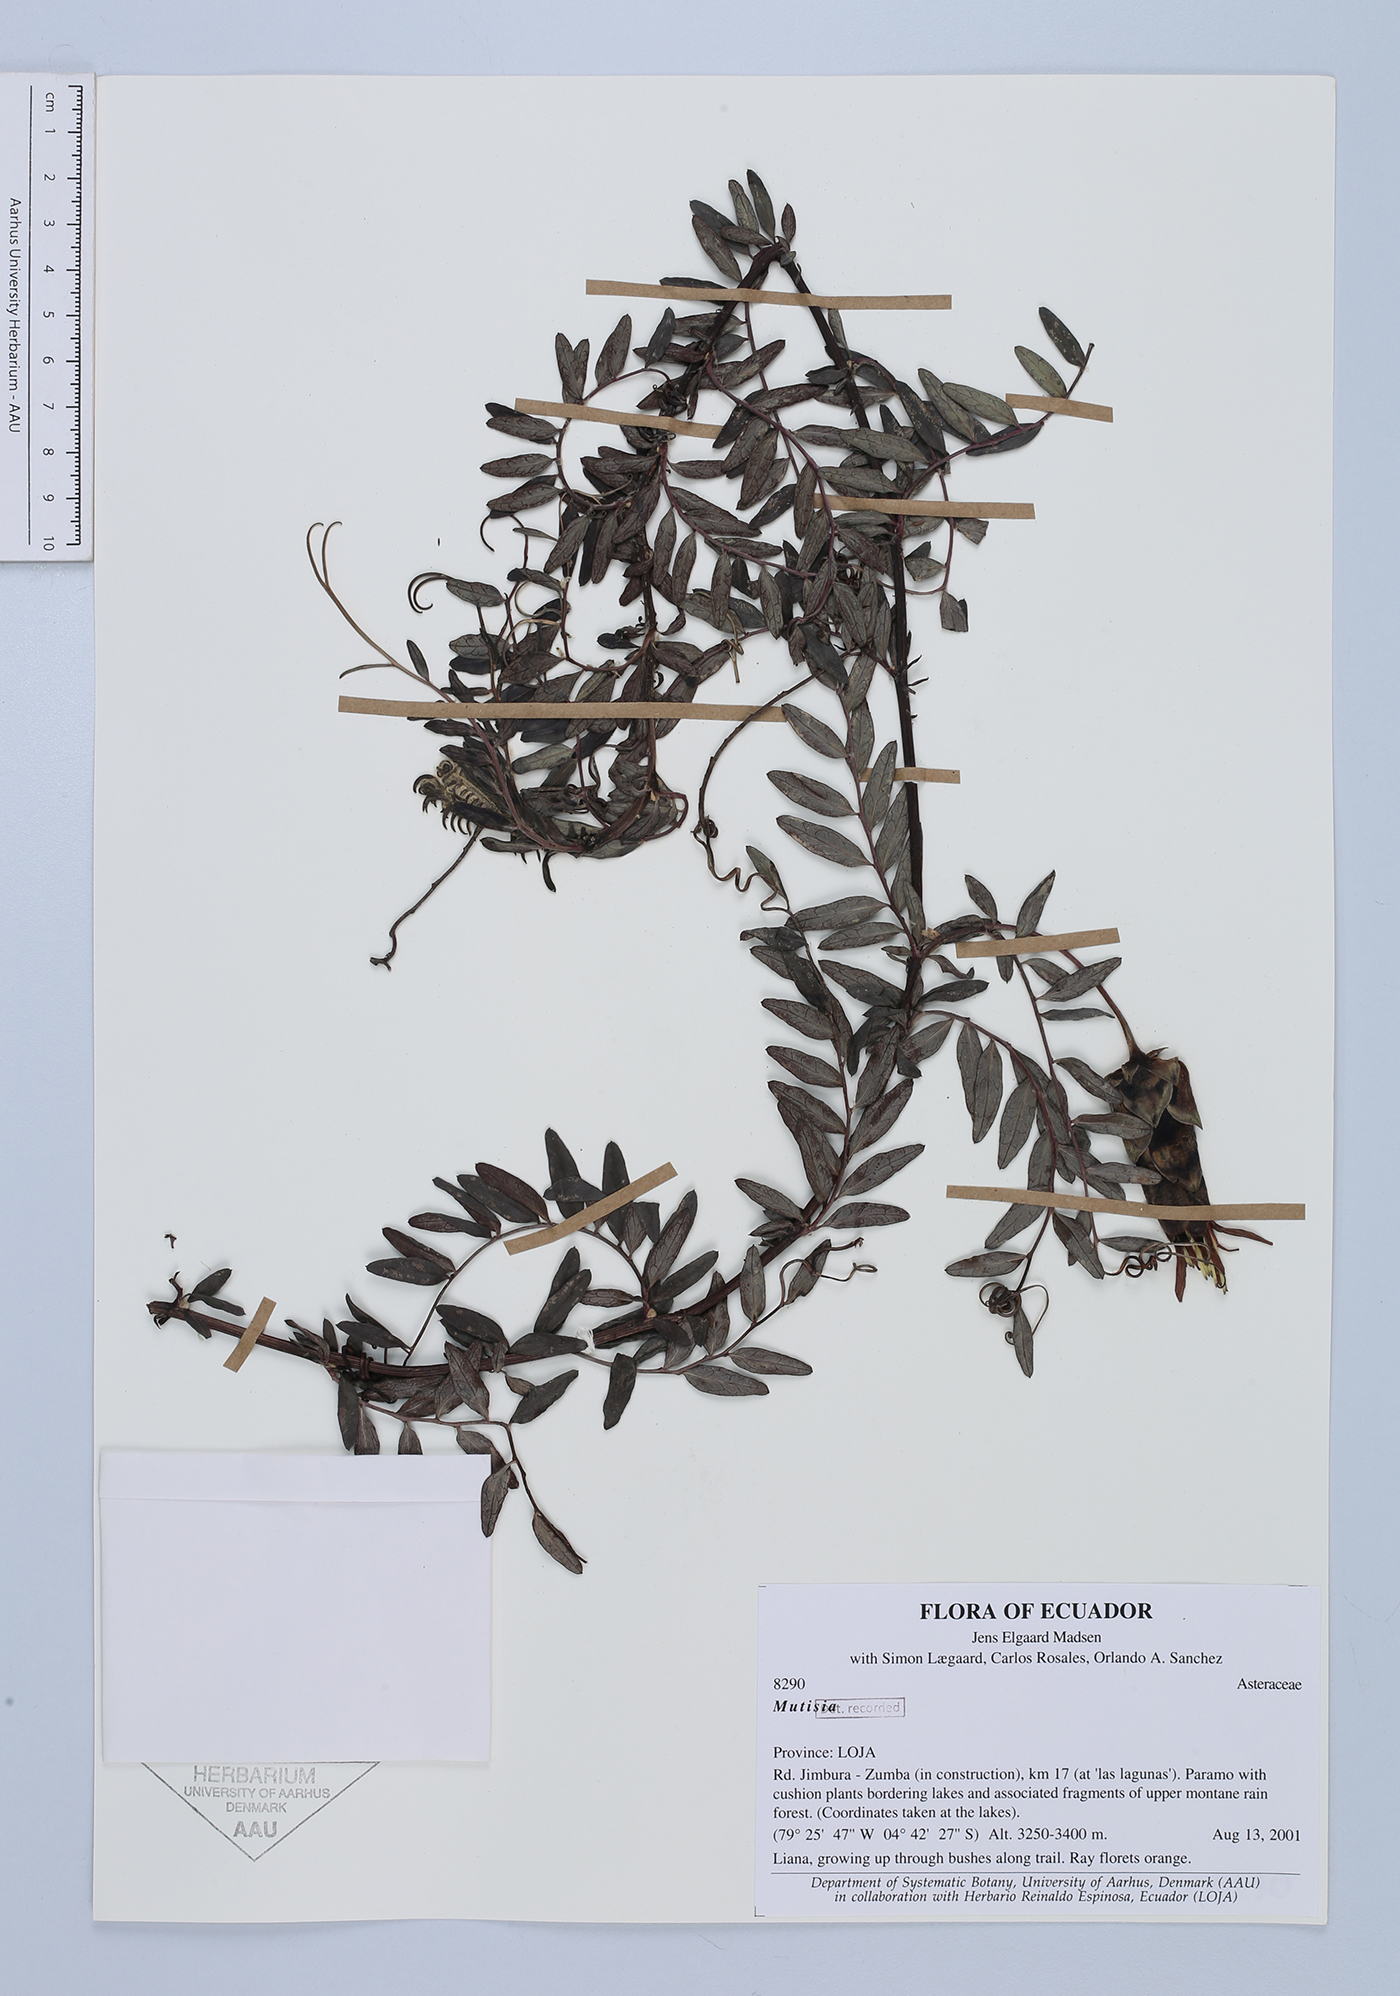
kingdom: Plantae
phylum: Tracheophyta
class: Magnoliopsida
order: Asterales
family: Asteraceae
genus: Mutisia
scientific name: Mutisia
